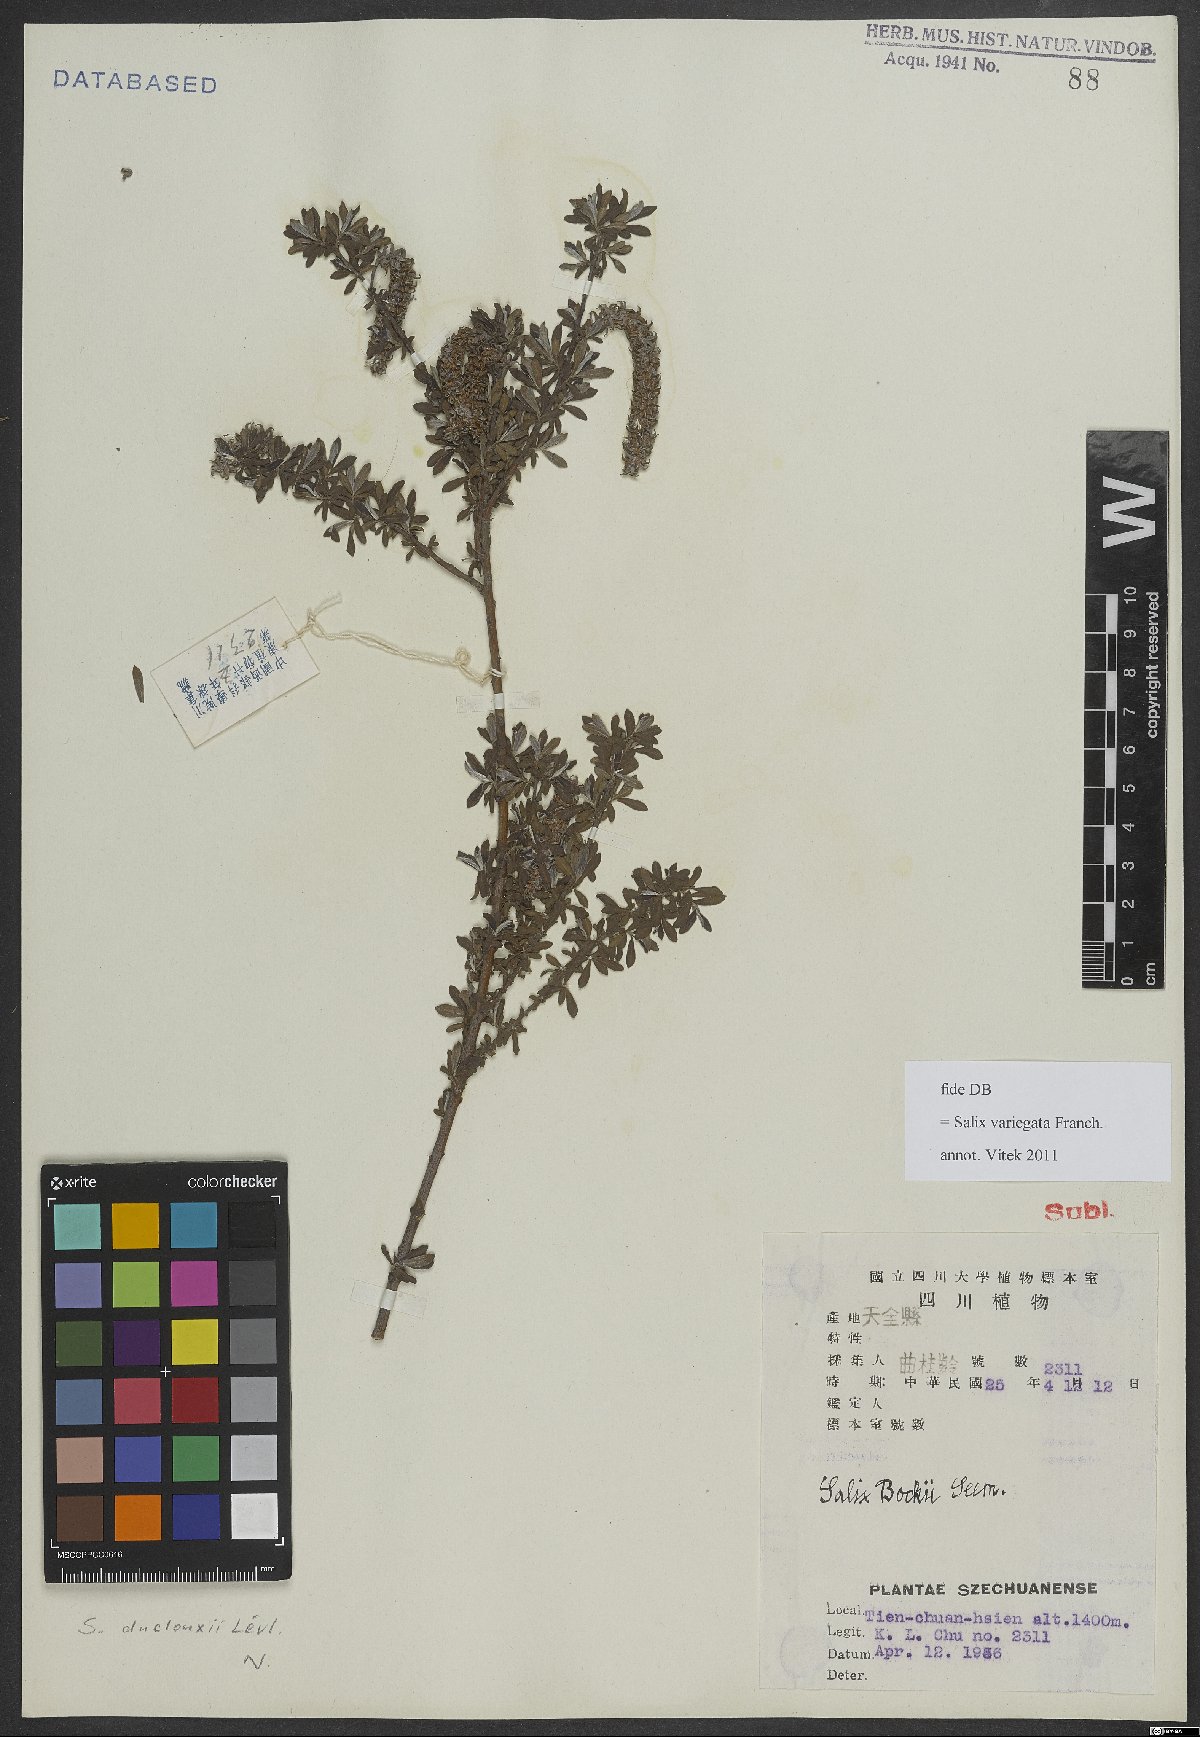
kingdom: Plantae
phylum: Tracheophyta
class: Magnoliopsida
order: Malpighiales
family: Salicaceae
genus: Salix
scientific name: Salix variegata
